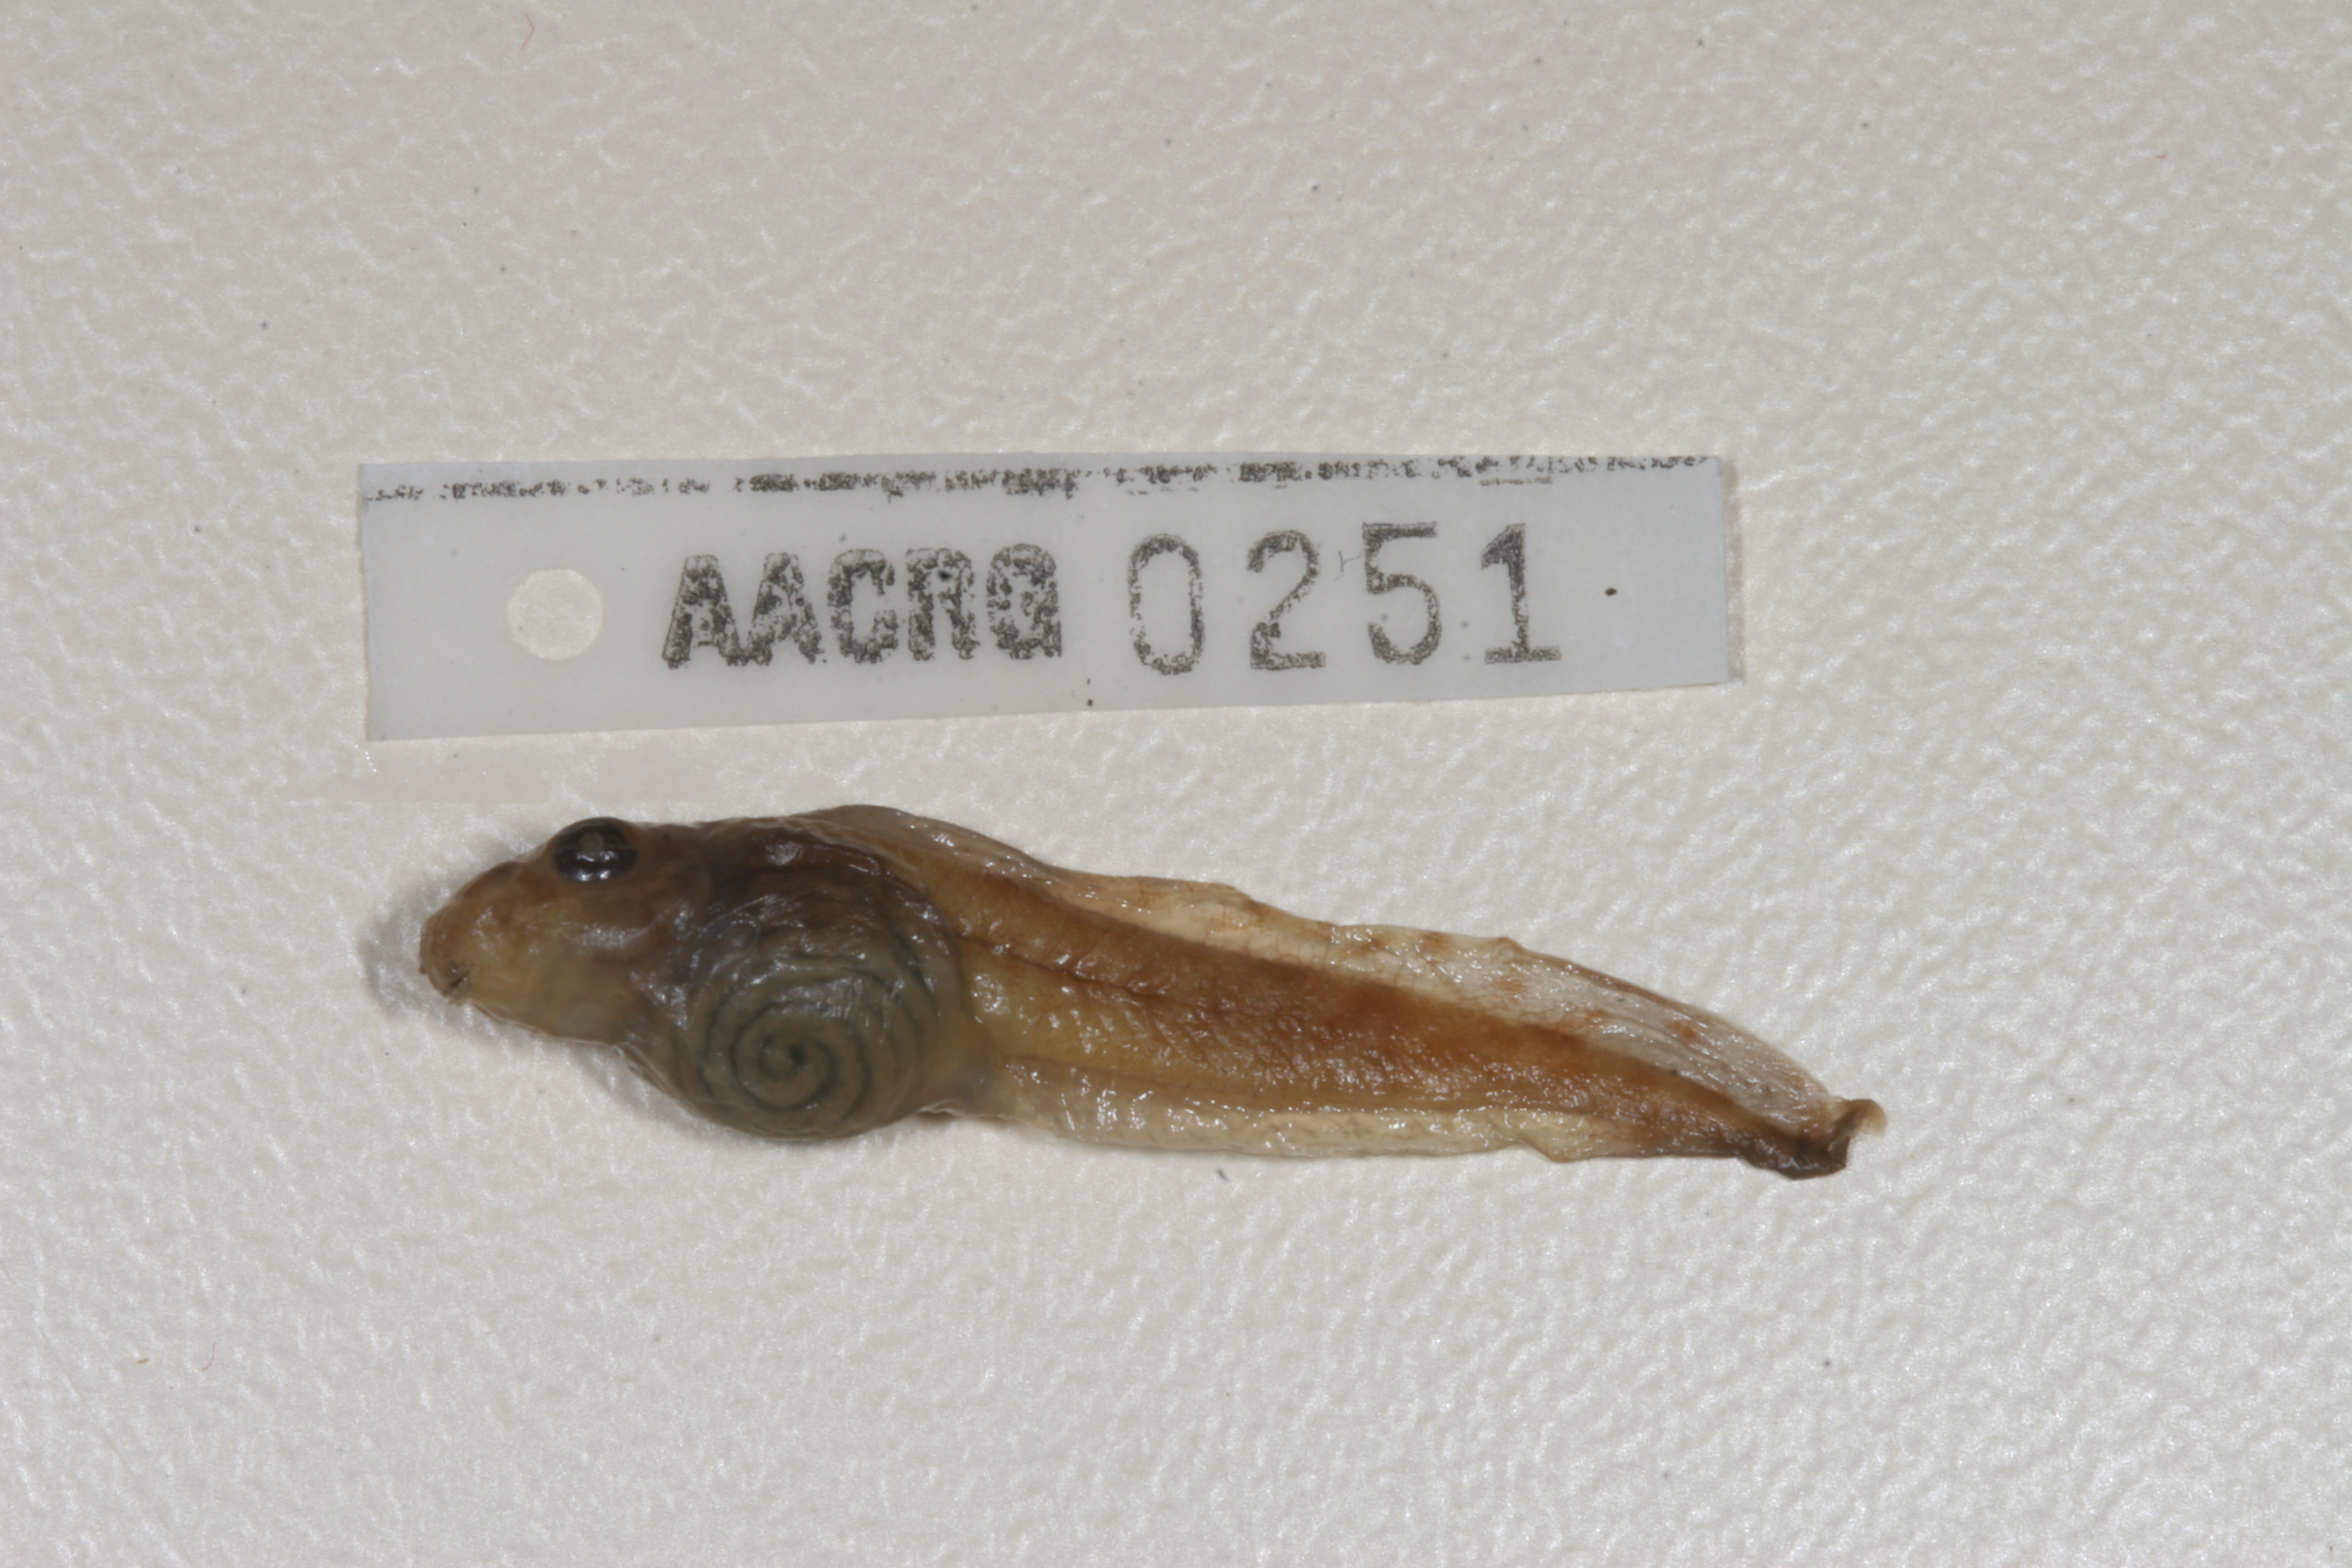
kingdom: Animalia
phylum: Chordata
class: Amphibia
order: Anura
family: Pyxicephalidae
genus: Amietia
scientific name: Amietia fuscigula
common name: Cape rana
